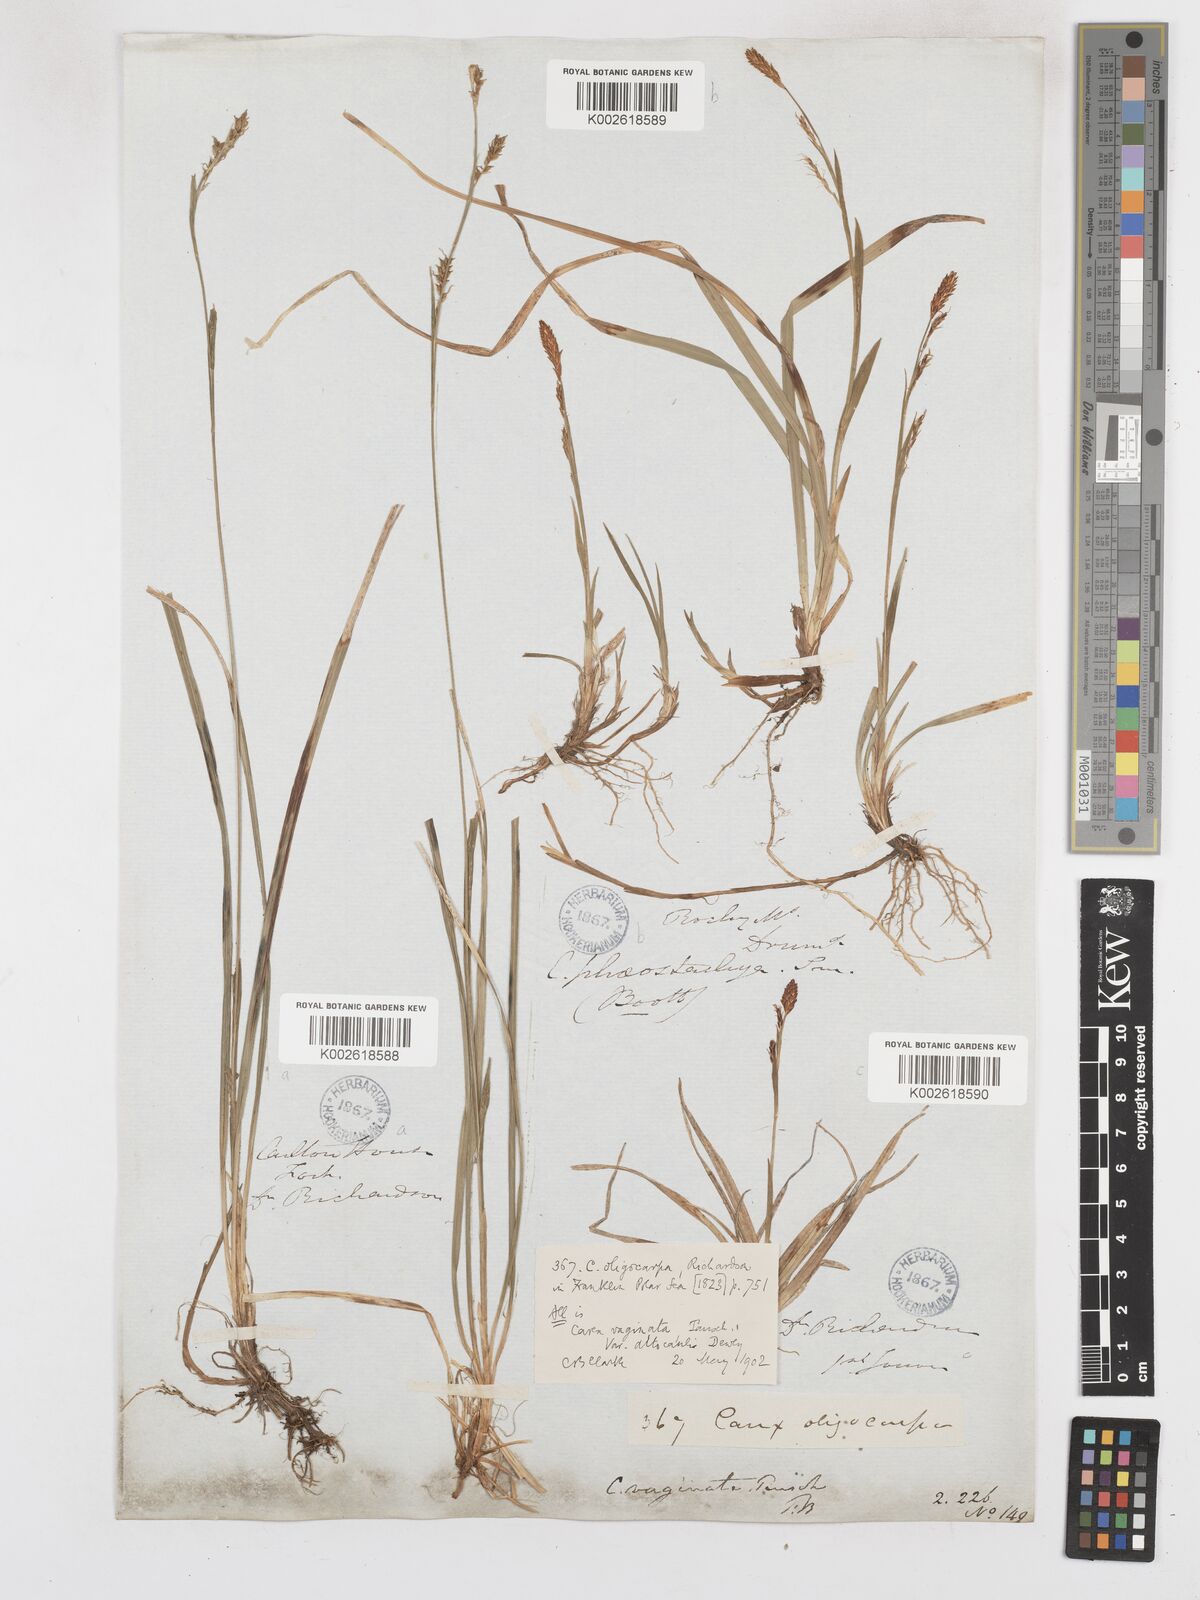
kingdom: Plantae
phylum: Tracheophyta
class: Liliopsida
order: Poales
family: Cyperaceae
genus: Carex
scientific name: Carex vaginata
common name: Sheathed sedge
